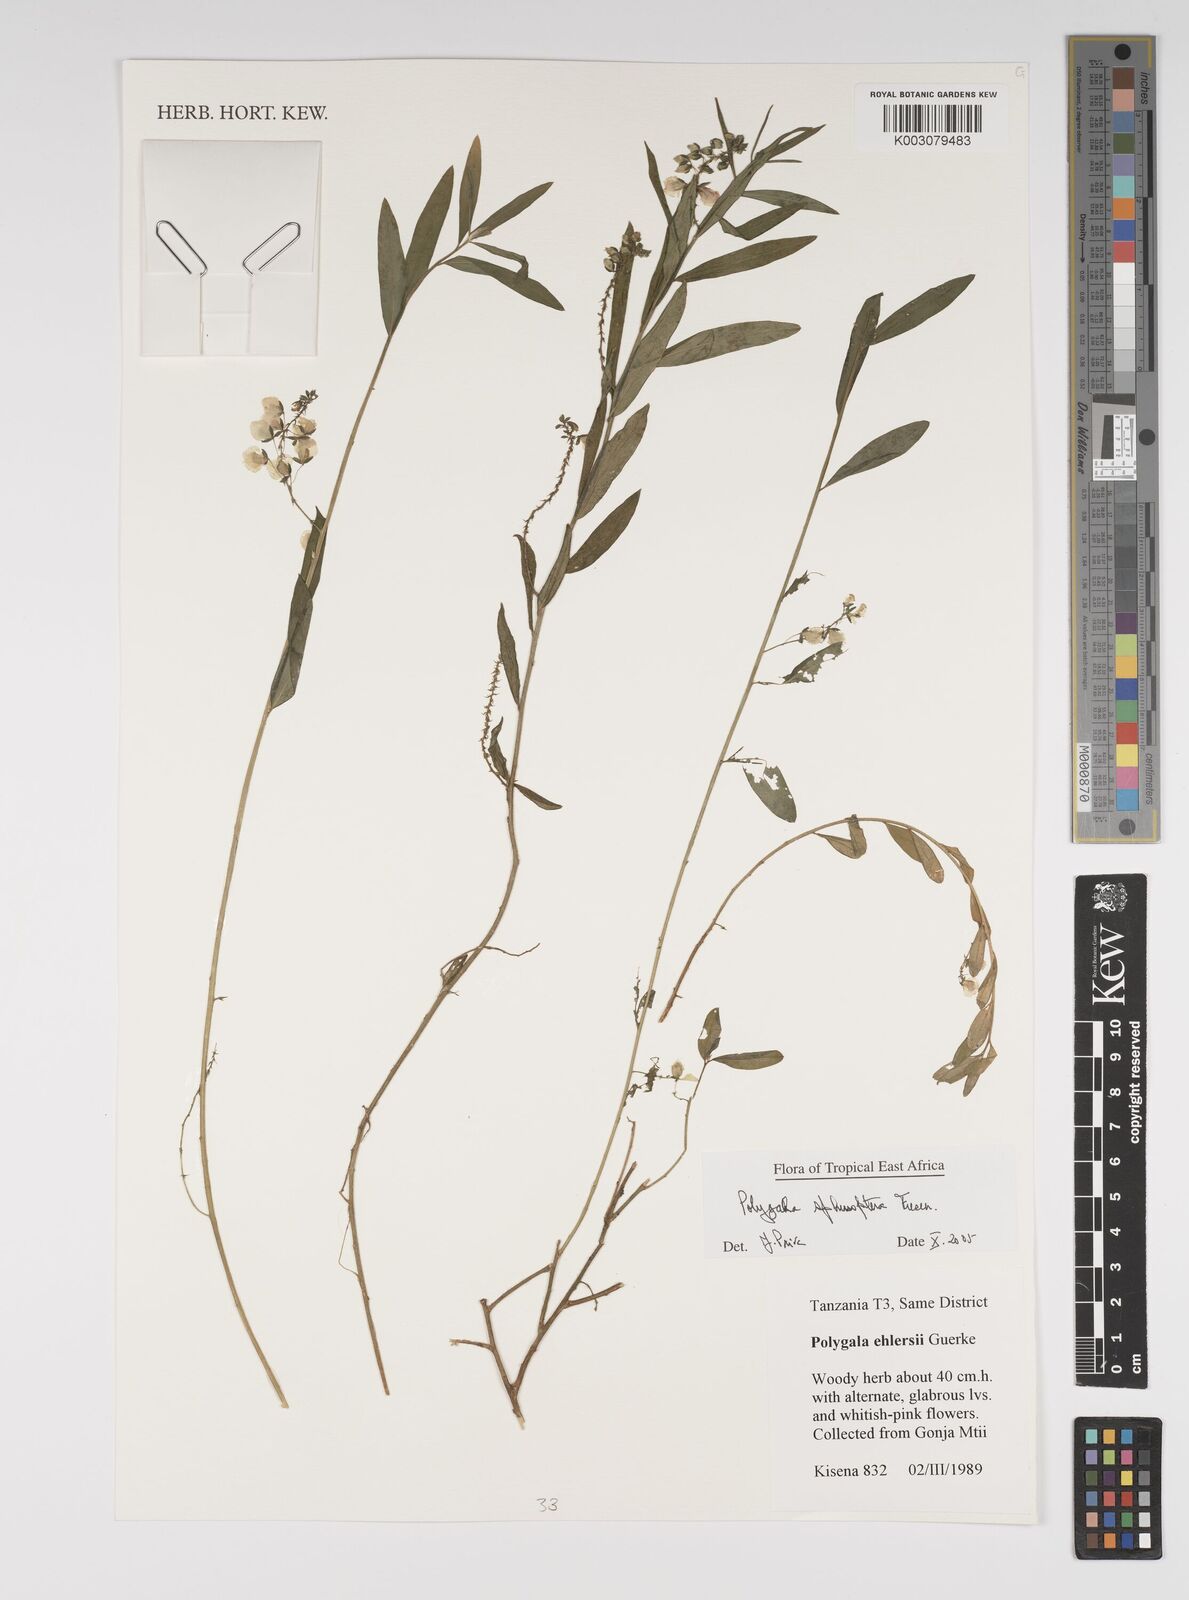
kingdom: Plantae
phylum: Tracheophyta
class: Magnoliopsida
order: Fabales
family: Polygalaceae
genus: Polygala
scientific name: Polygala sphenoptera
